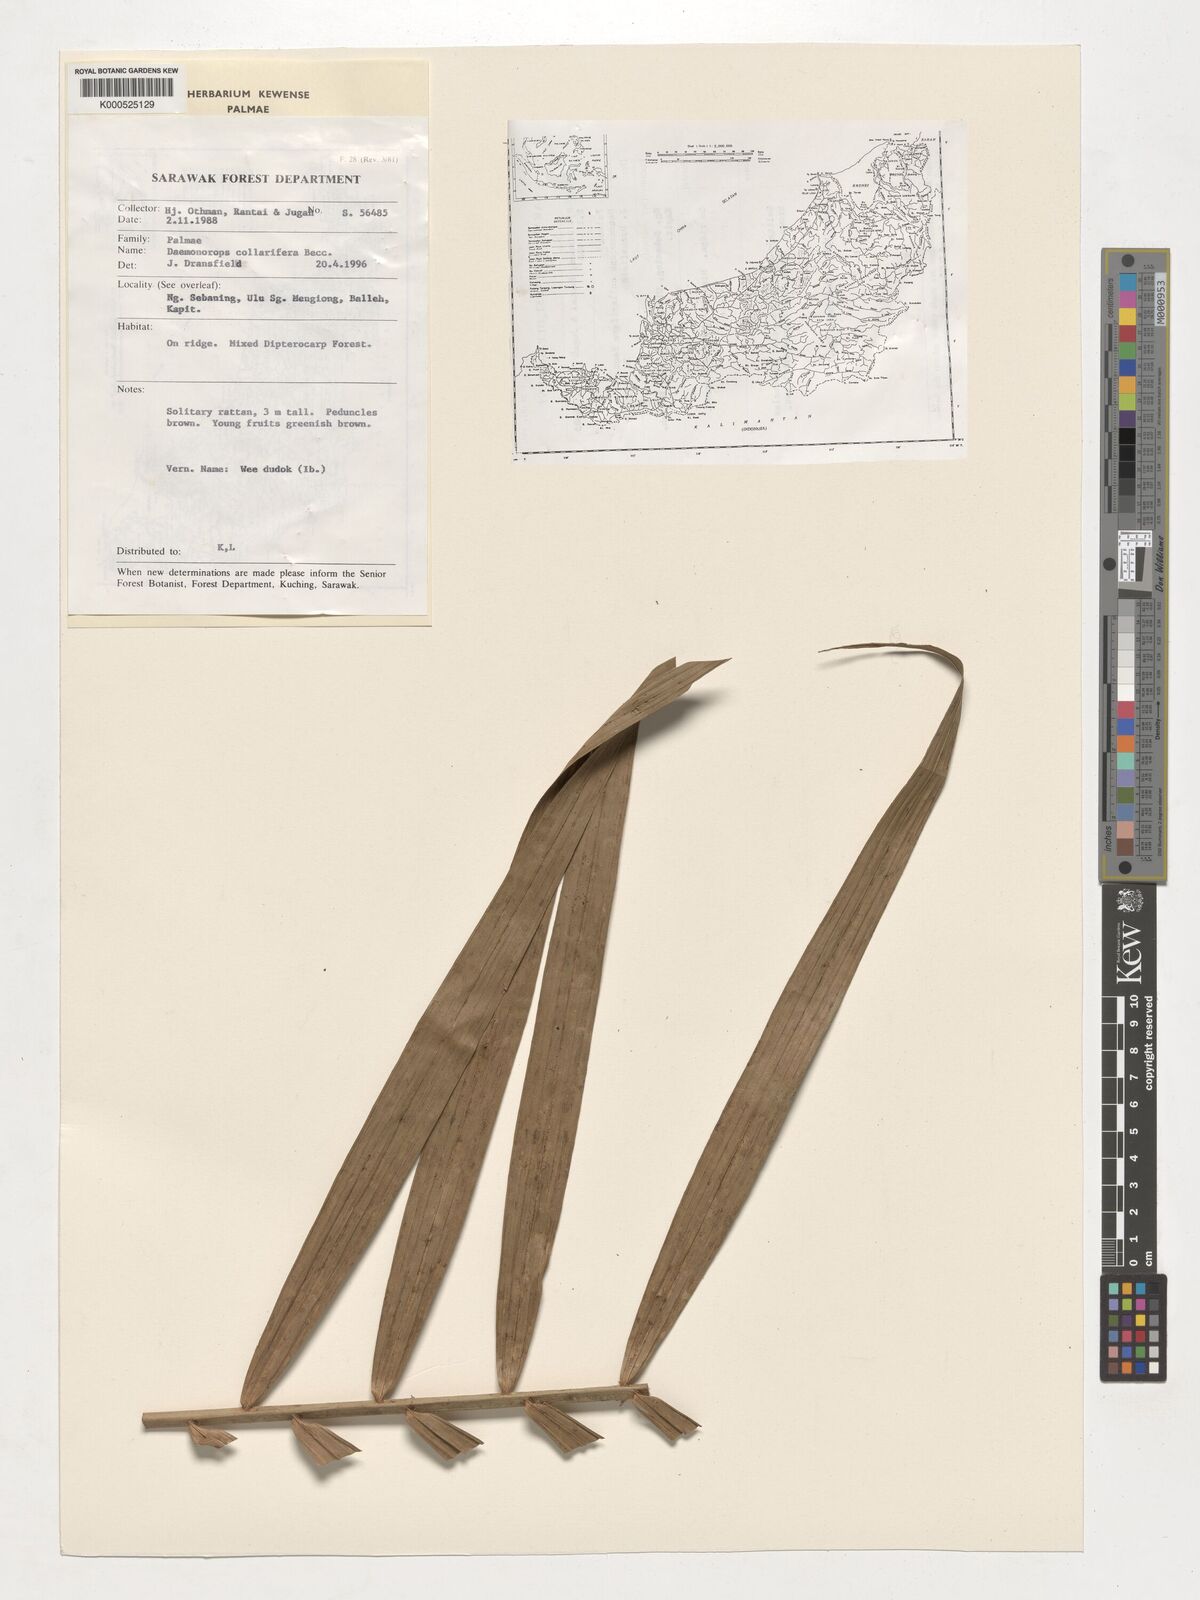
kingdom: Plantae
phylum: Tracheophyta
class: Liliopsida
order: Arecales
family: Arecaceae
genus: Calamus
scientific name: Calamus geniculatus
